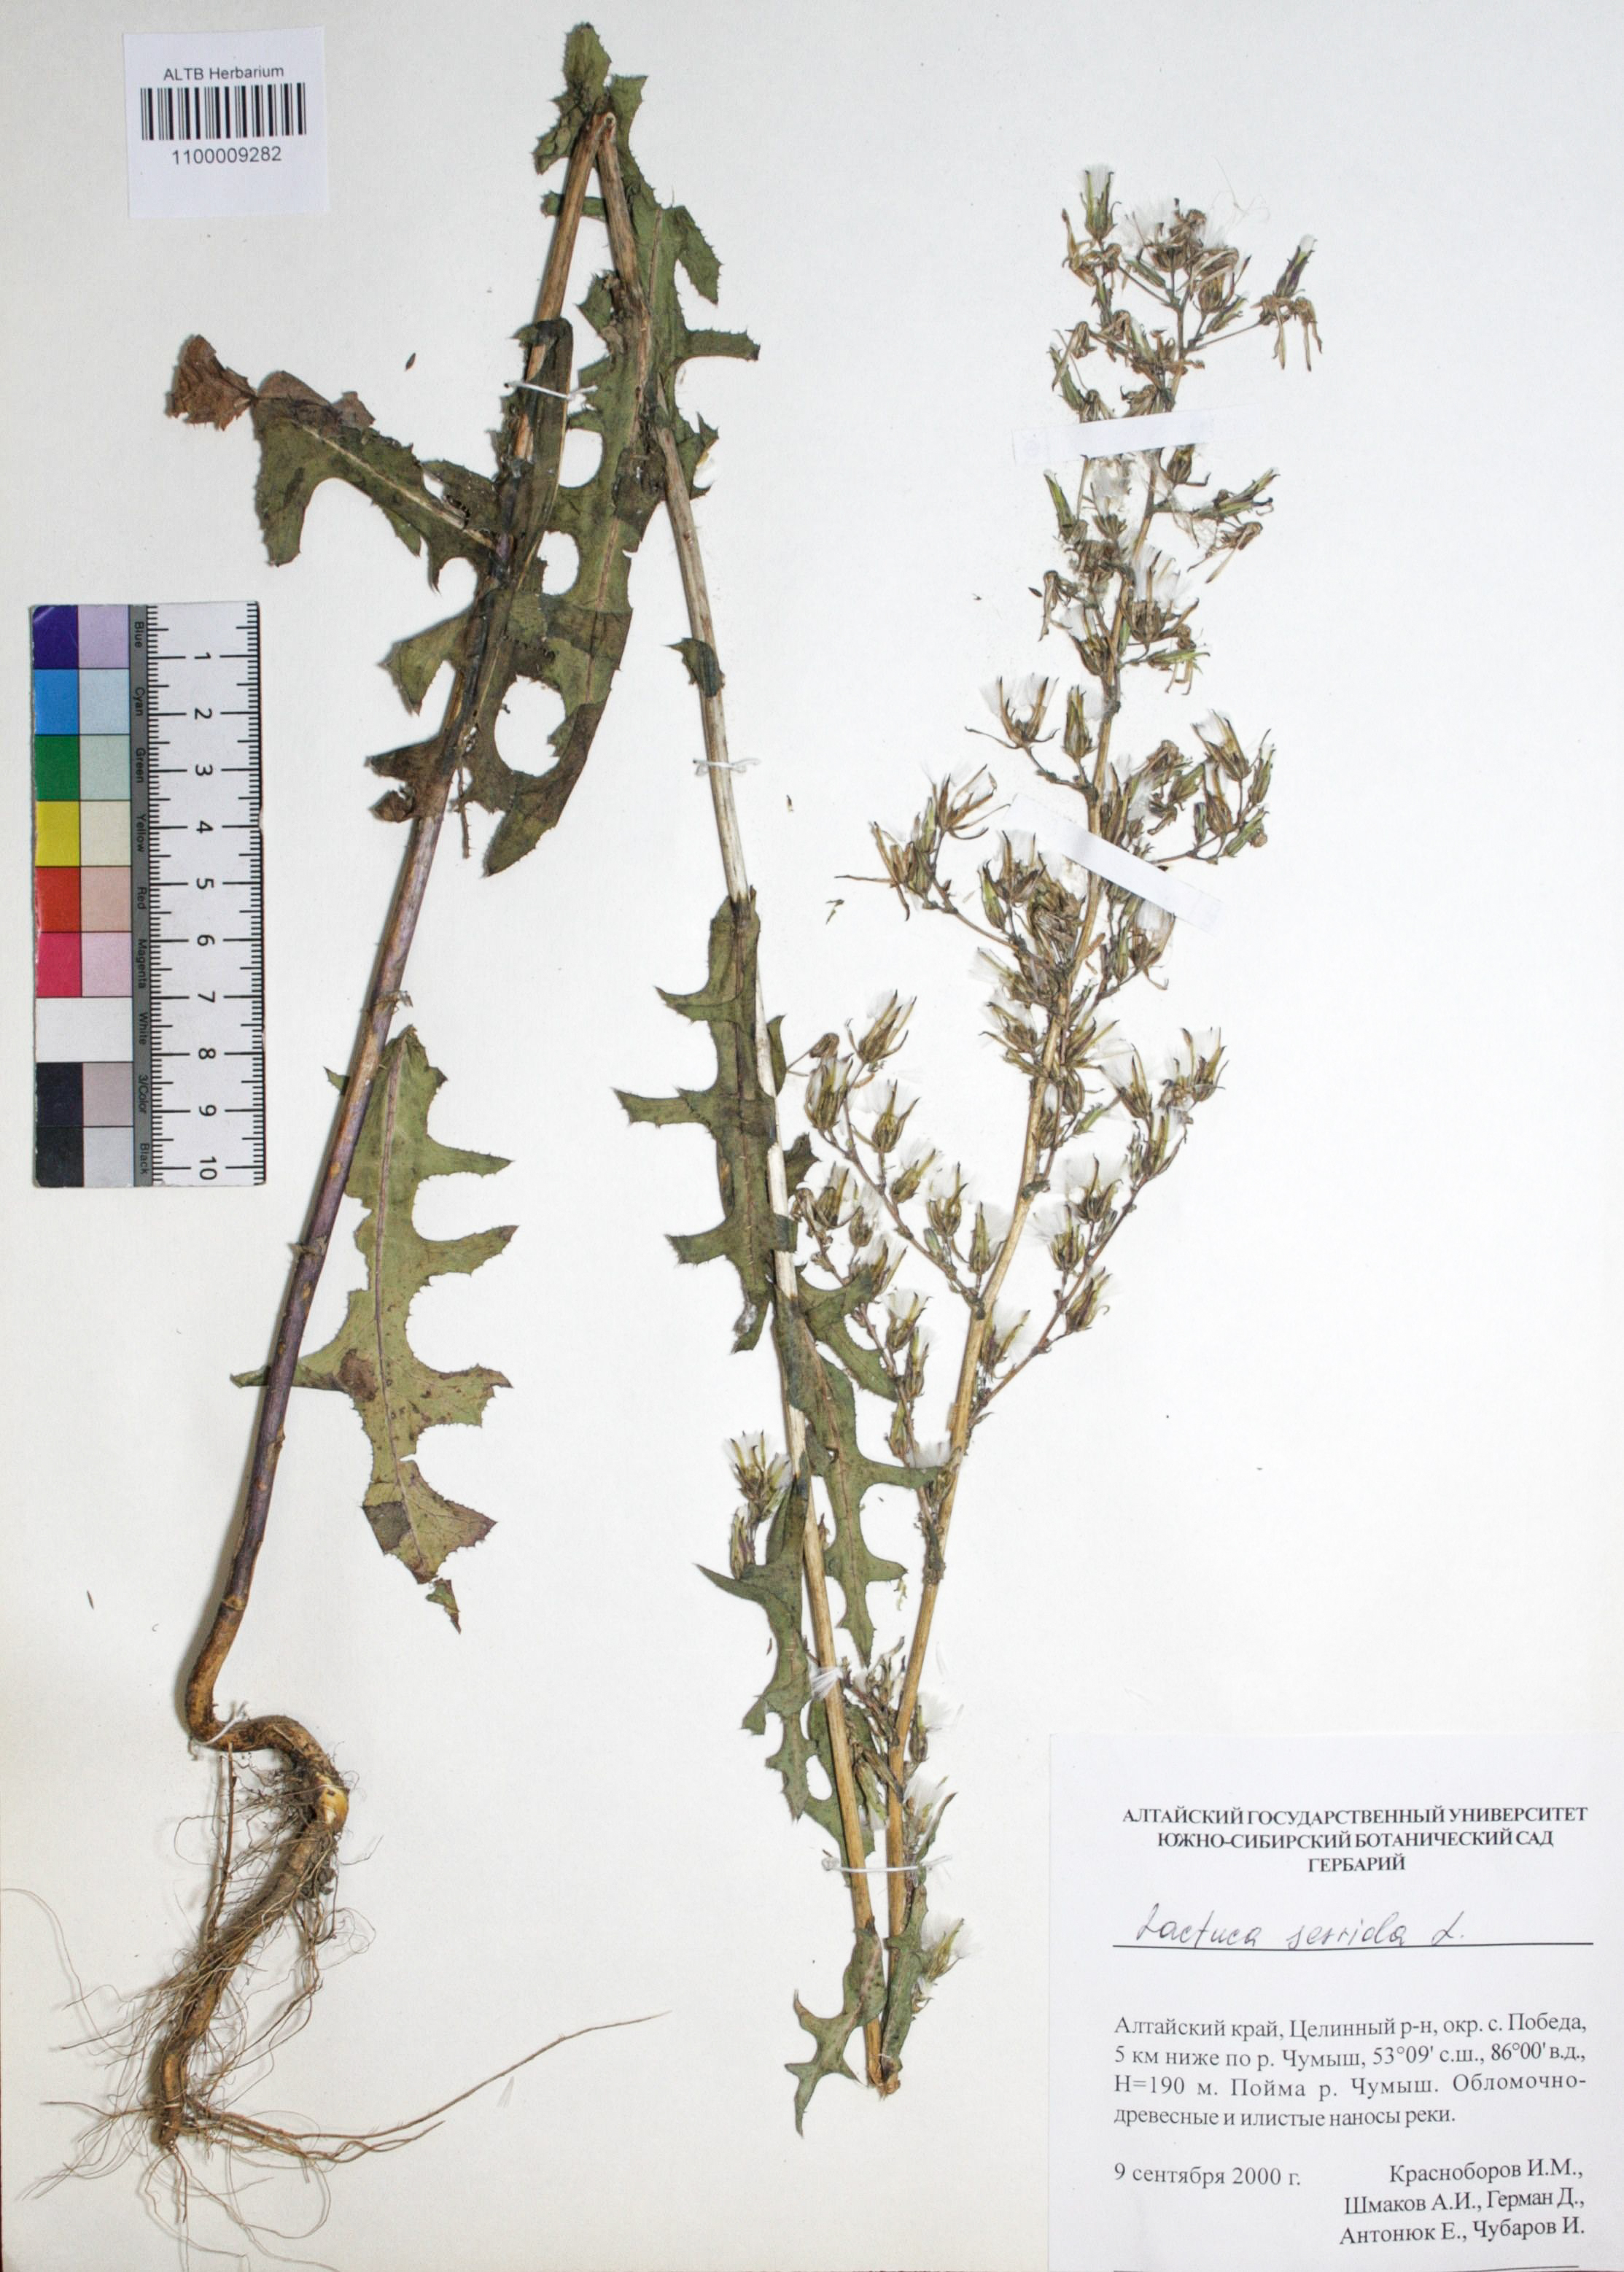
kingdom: Plantae
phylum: Tracheophyta
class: Magnoliopsida
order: Asterales
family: Asteraceae
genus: Lactuca
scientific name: Lactuca serriola
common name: Prickly lettuce
